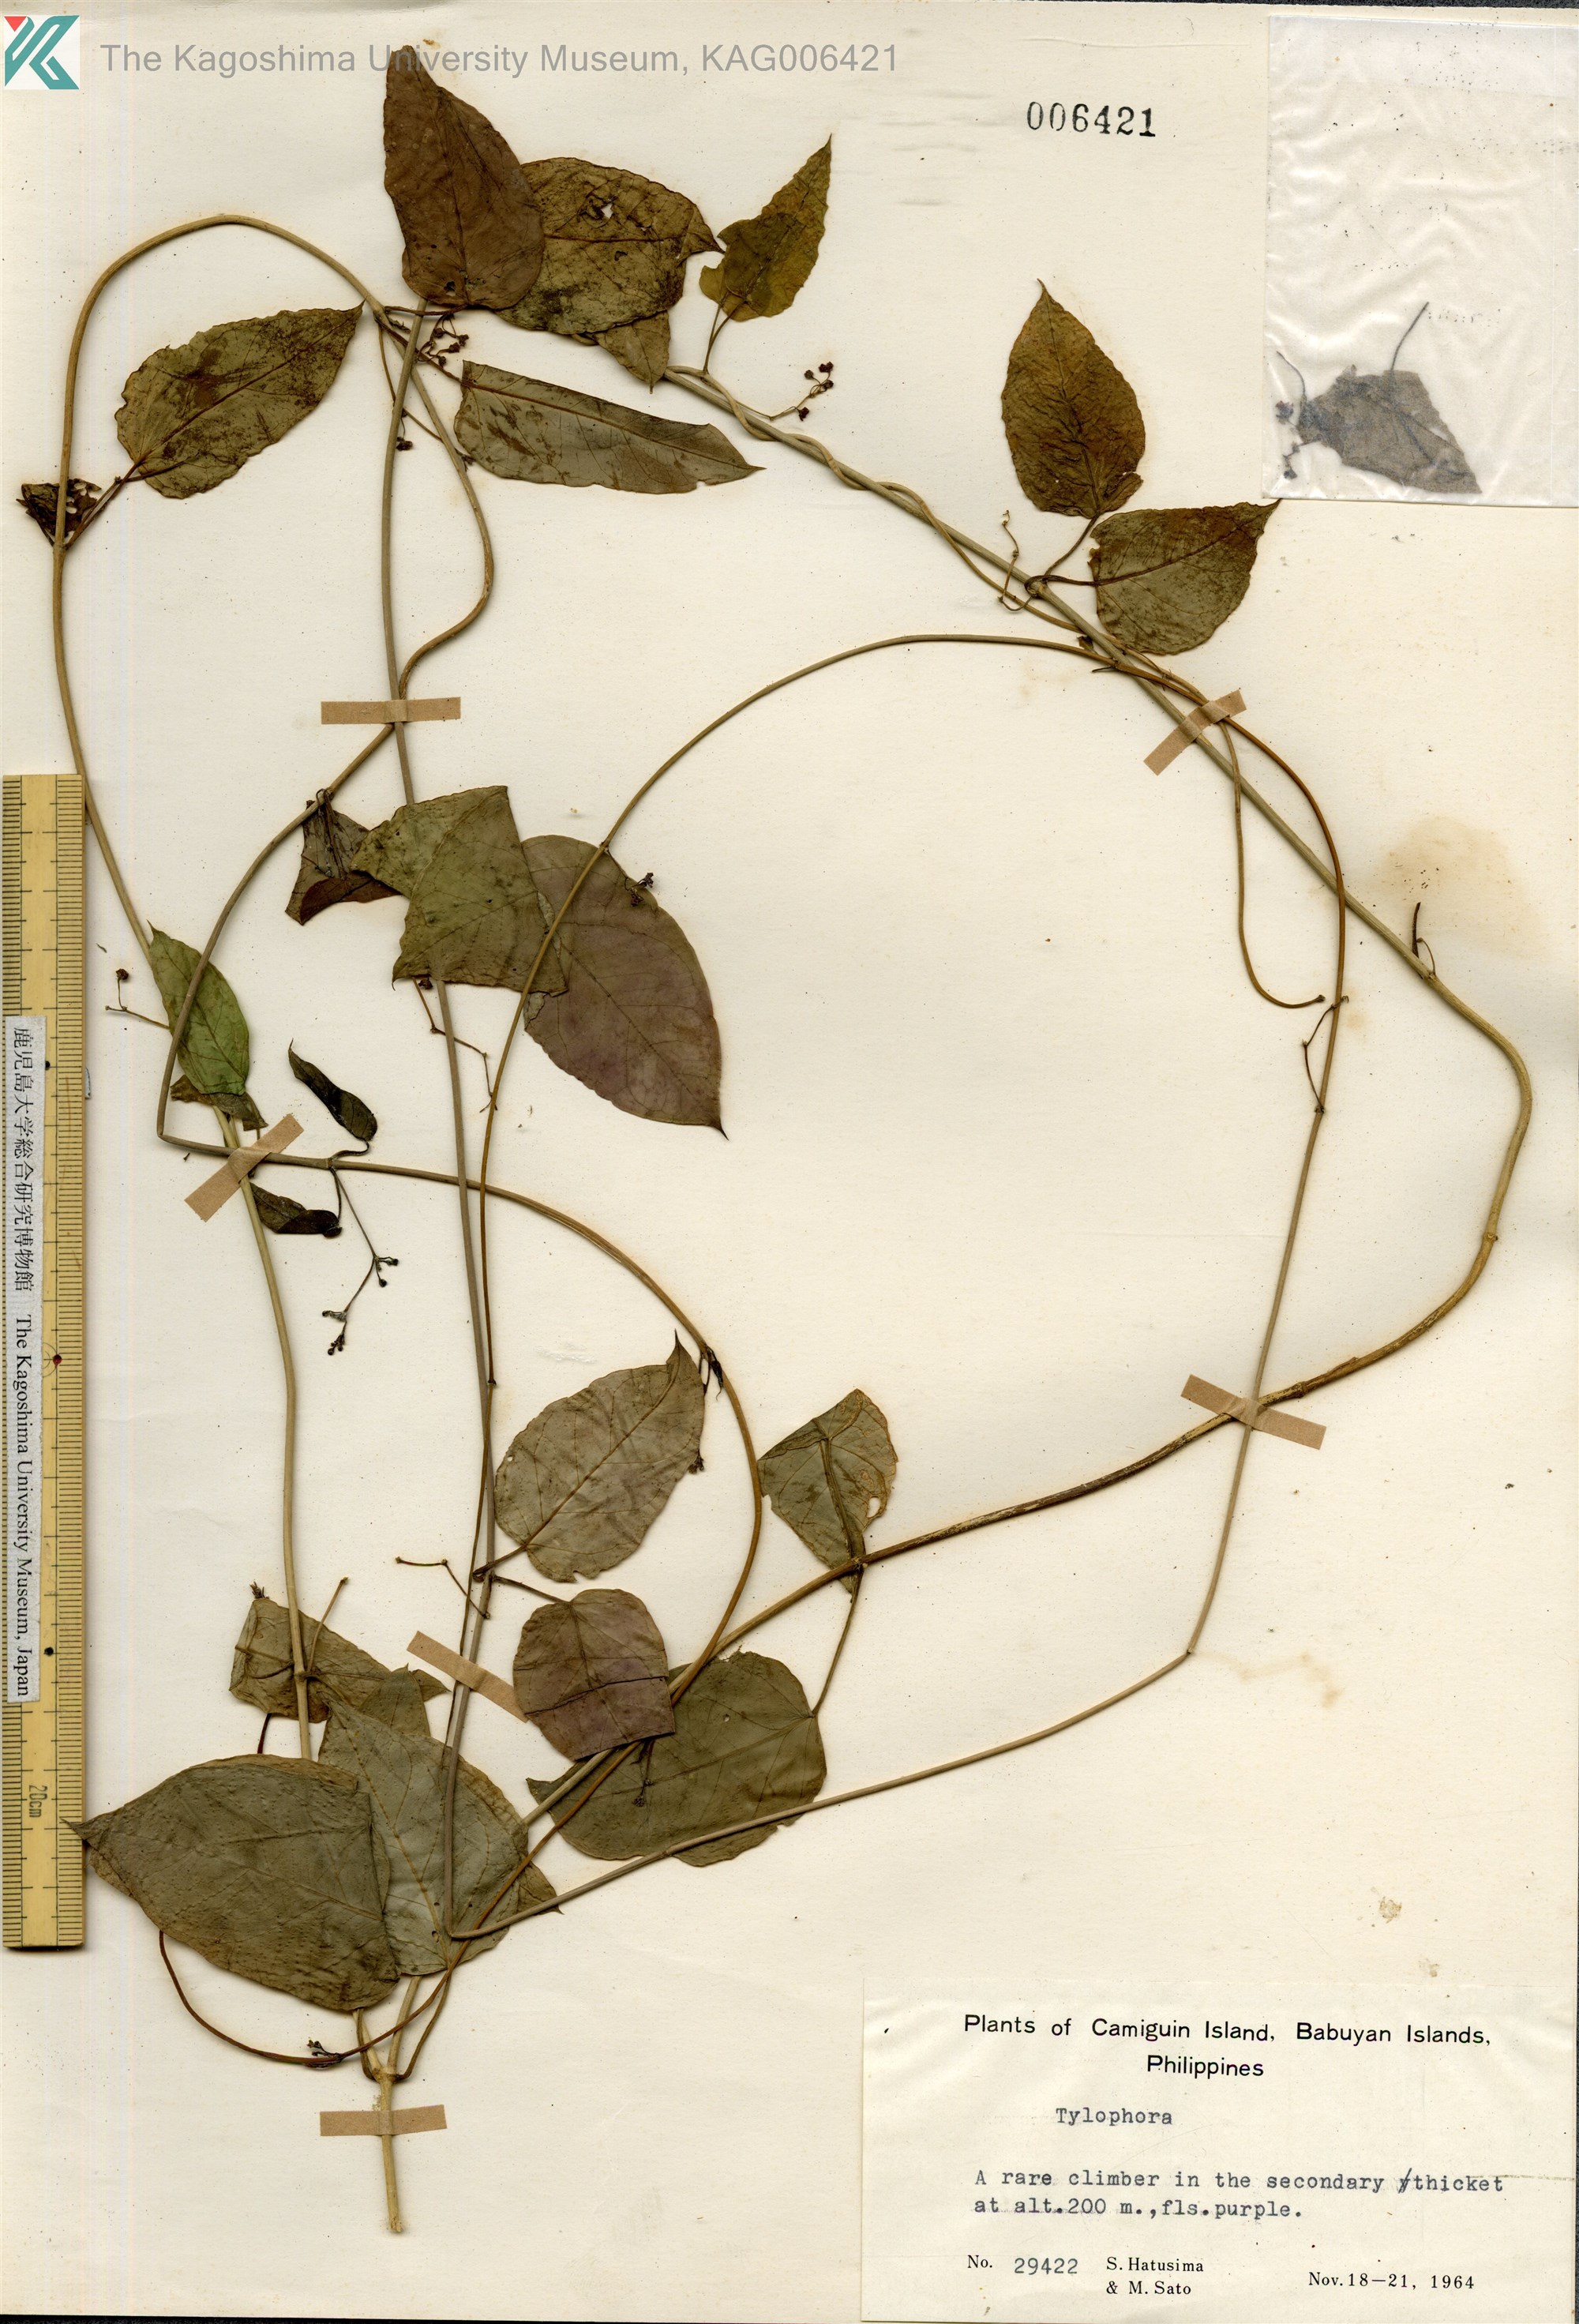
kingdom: Plantae
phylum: Tracheophyta
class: Magnoliopsida
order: Gentianales
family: Apocynaceae
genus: Vincetoxicum
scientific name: Vincetoxicum
